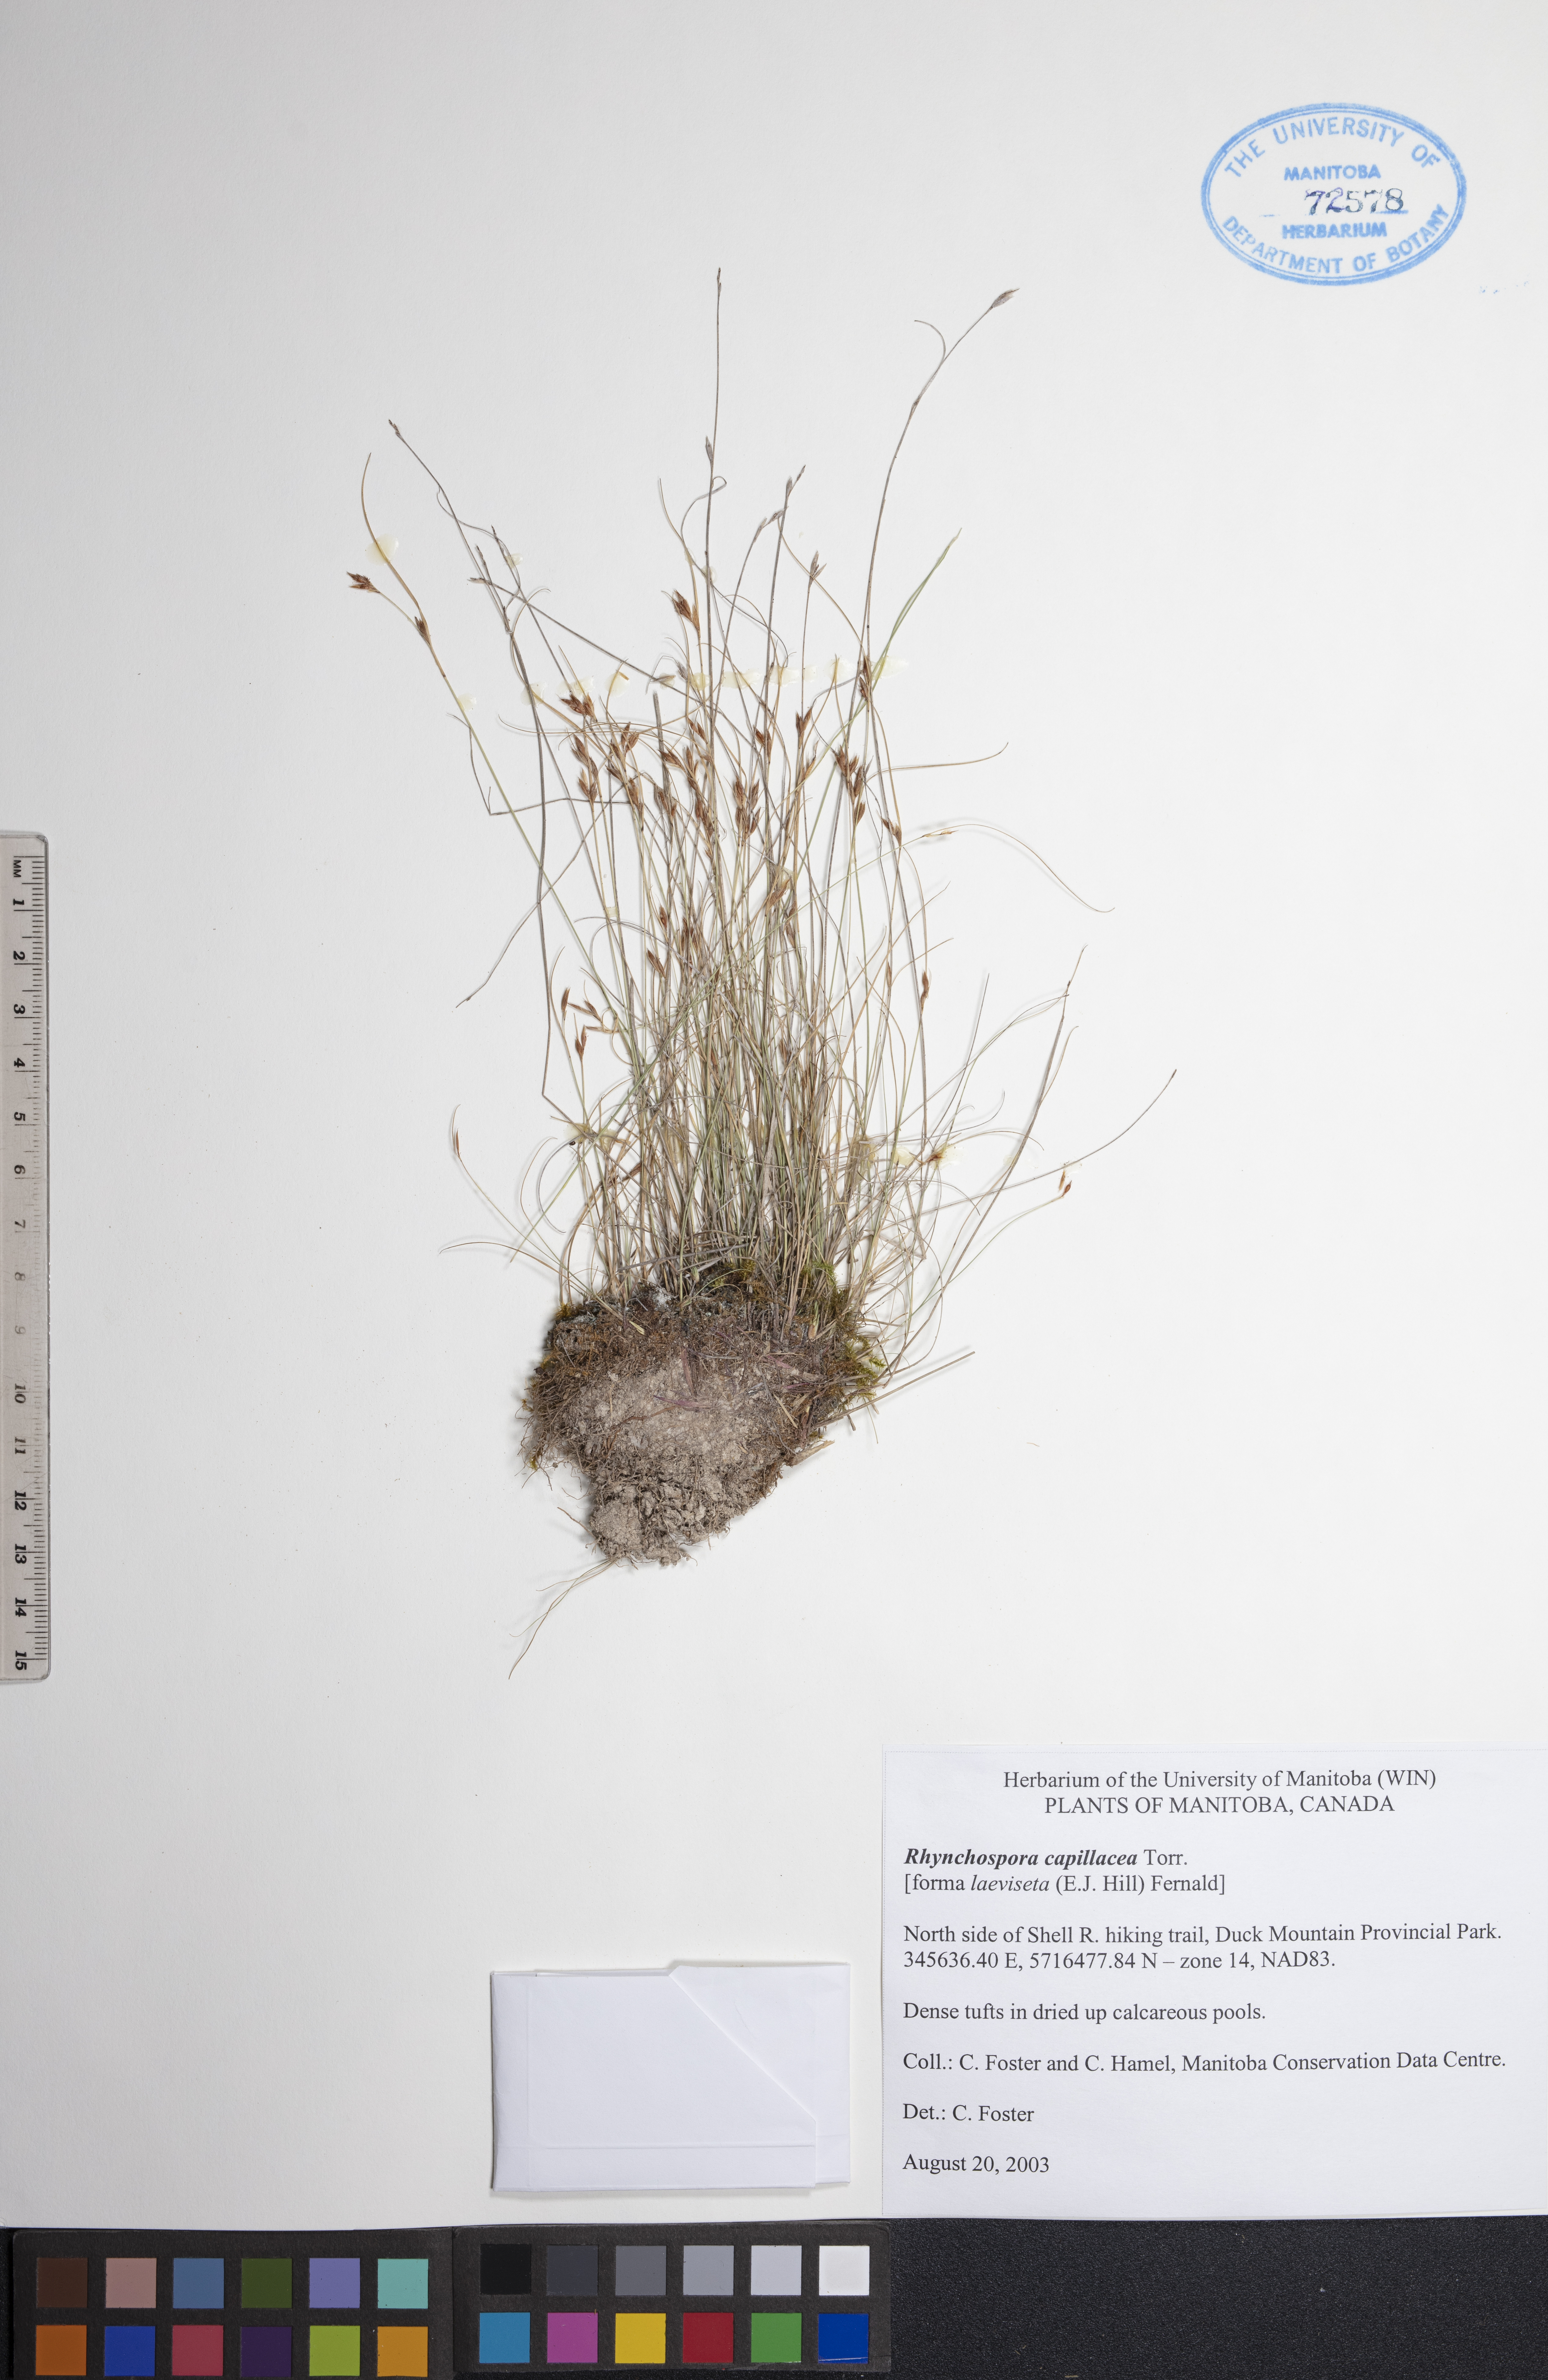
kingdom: Plantae
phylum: Tracheophyta
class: Liliopsida
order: Poales
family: Cyperaceae
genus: Rhynchospora
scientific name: Rhynchospora capillacea
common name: Capillary beakrush
